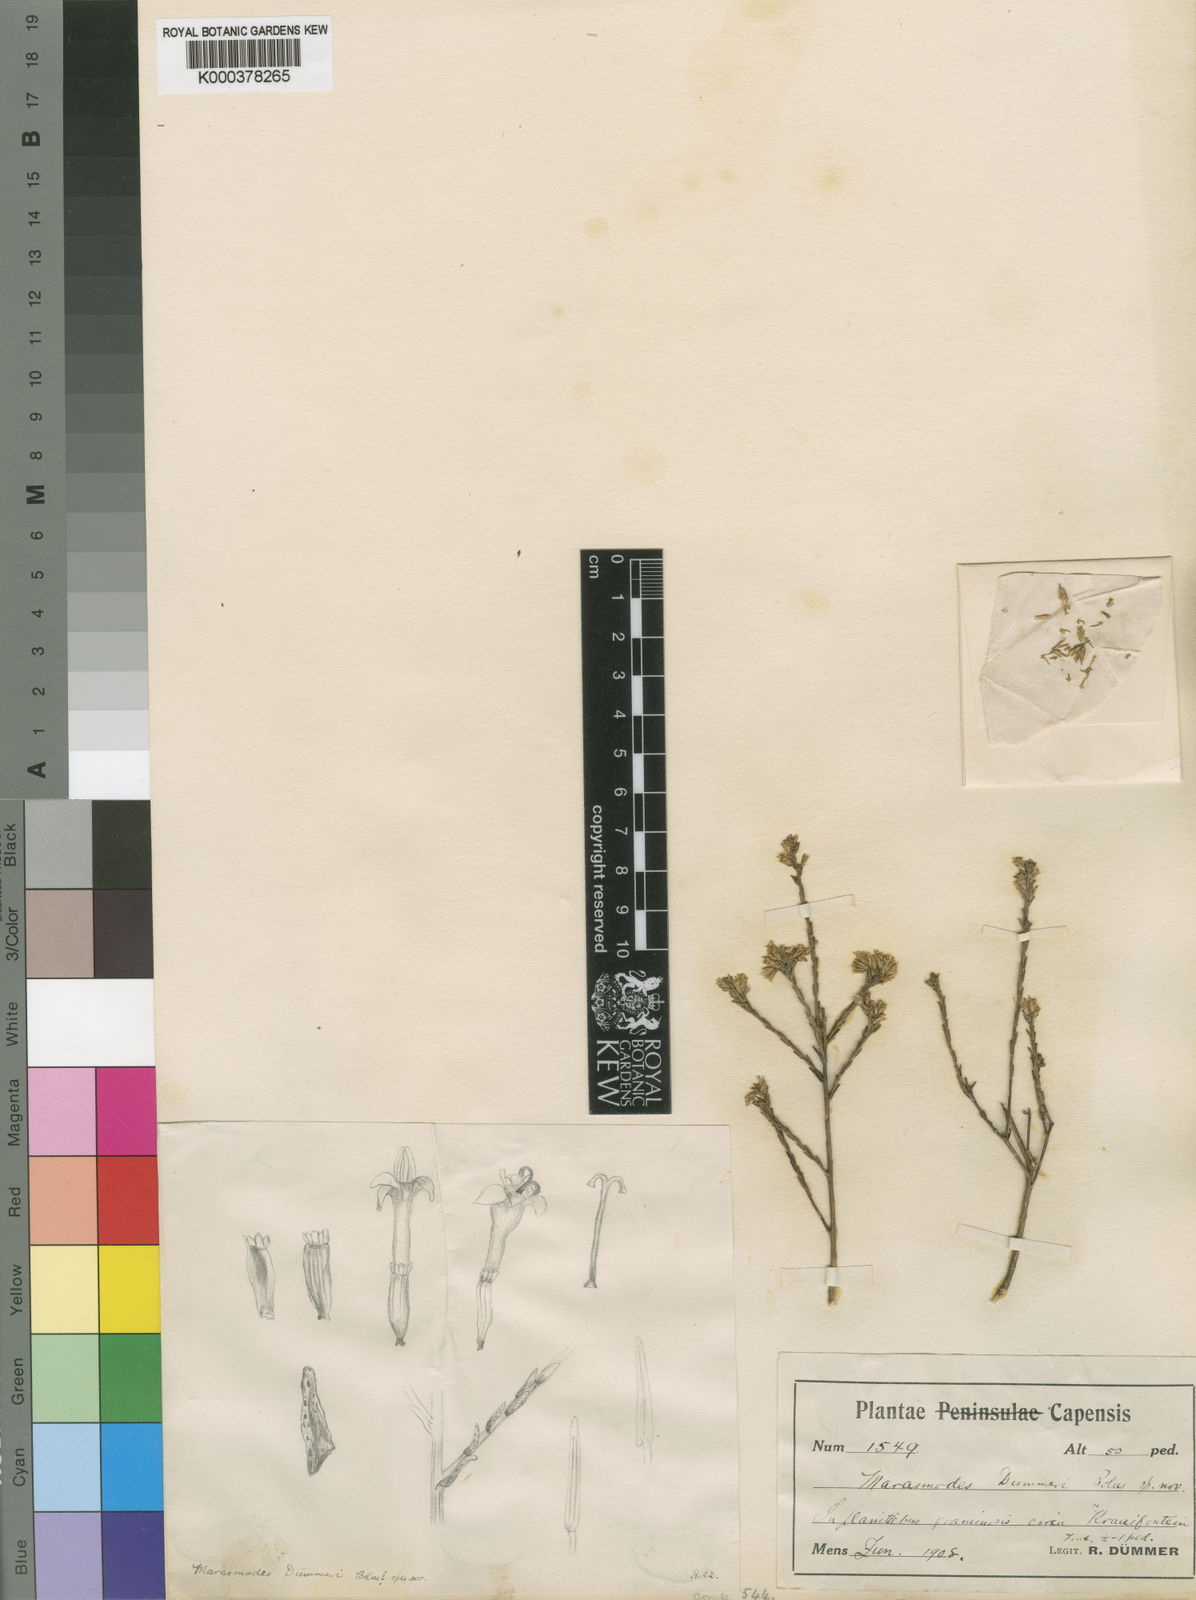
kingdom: Plantae
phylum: Tracheophyta
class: Magnoliopsida
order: Asterales
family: Asteraceae
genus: Marasmodes
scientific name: Marasmodes
